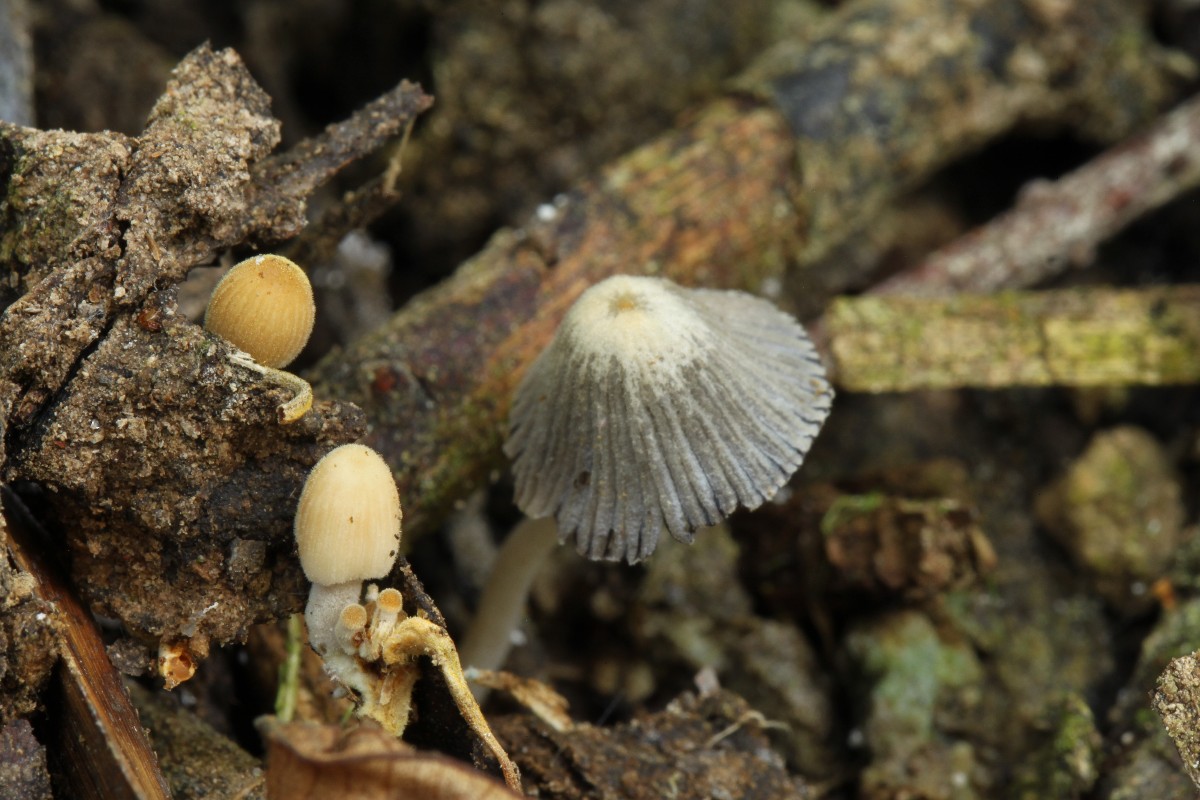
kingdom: Fungi
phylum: Basidiomycota
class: Agaricomycetes
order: Agaricales
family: Psathyrellaceae
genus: Tulosesus
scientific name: Tulosesus bisporus
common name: tosporet blækhat
